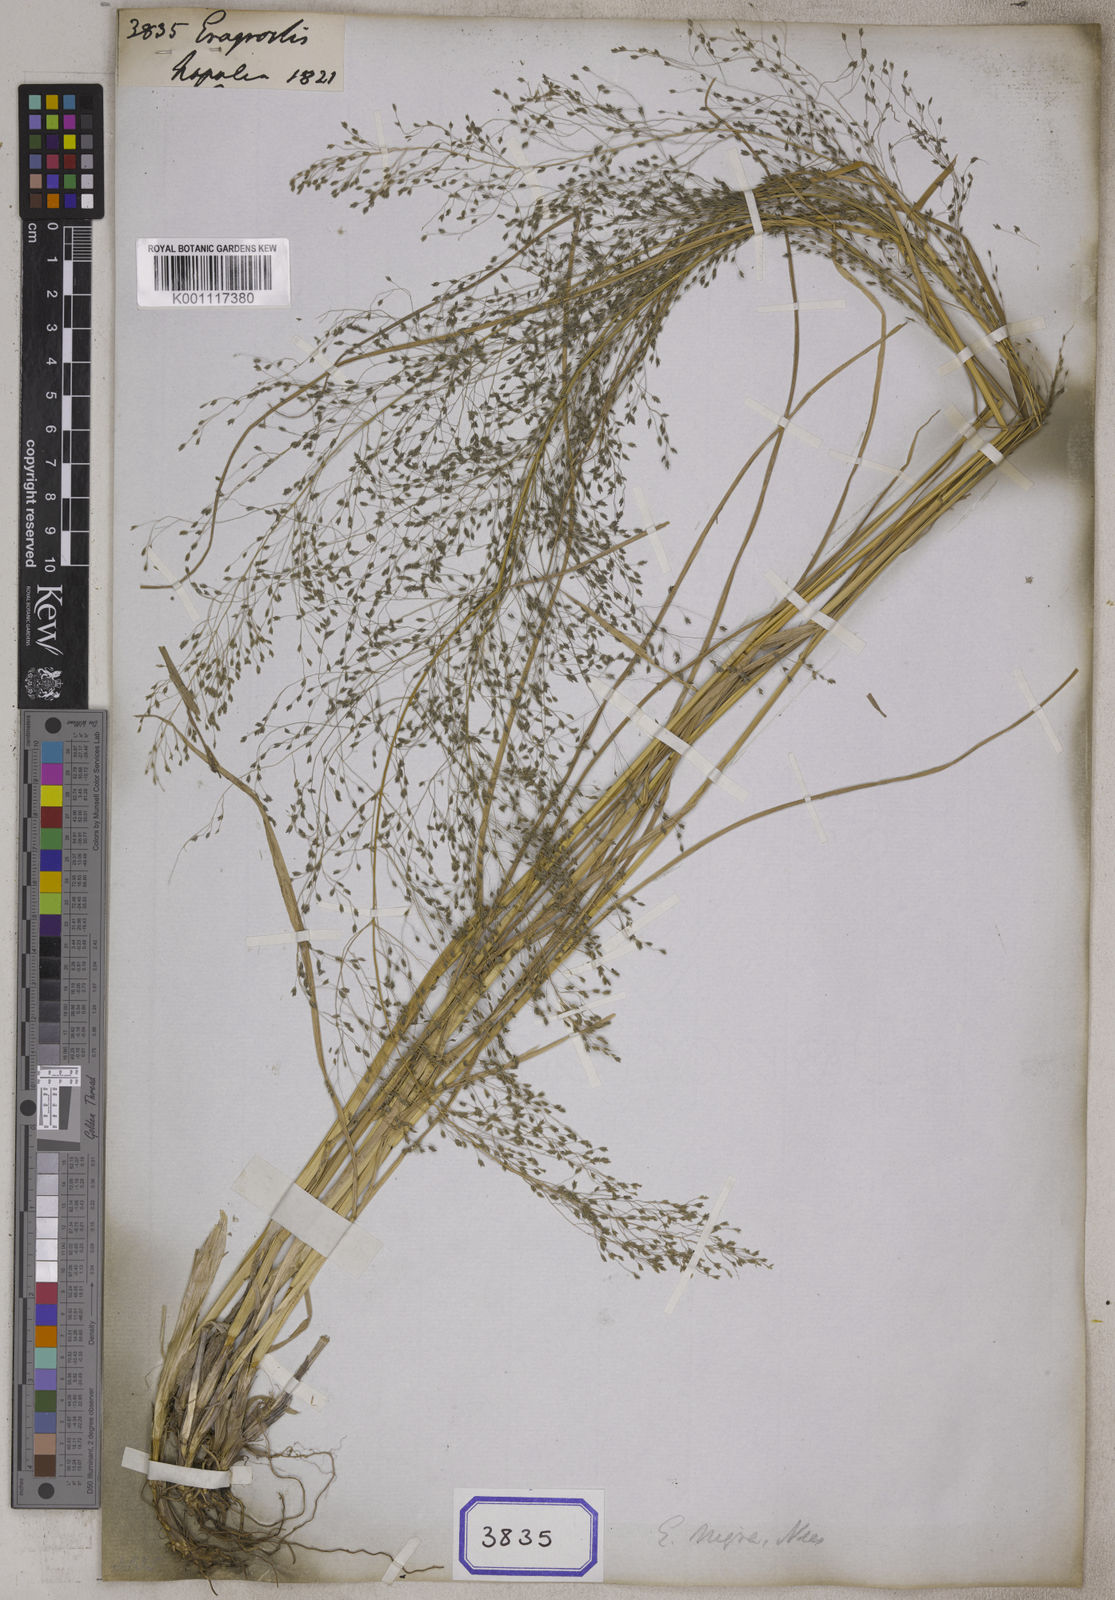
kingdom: Plantae
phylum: Tracheophyta
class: Liliopsida
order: Poales
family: Poaceae
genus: Eragrostis
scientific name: Eragrostis
